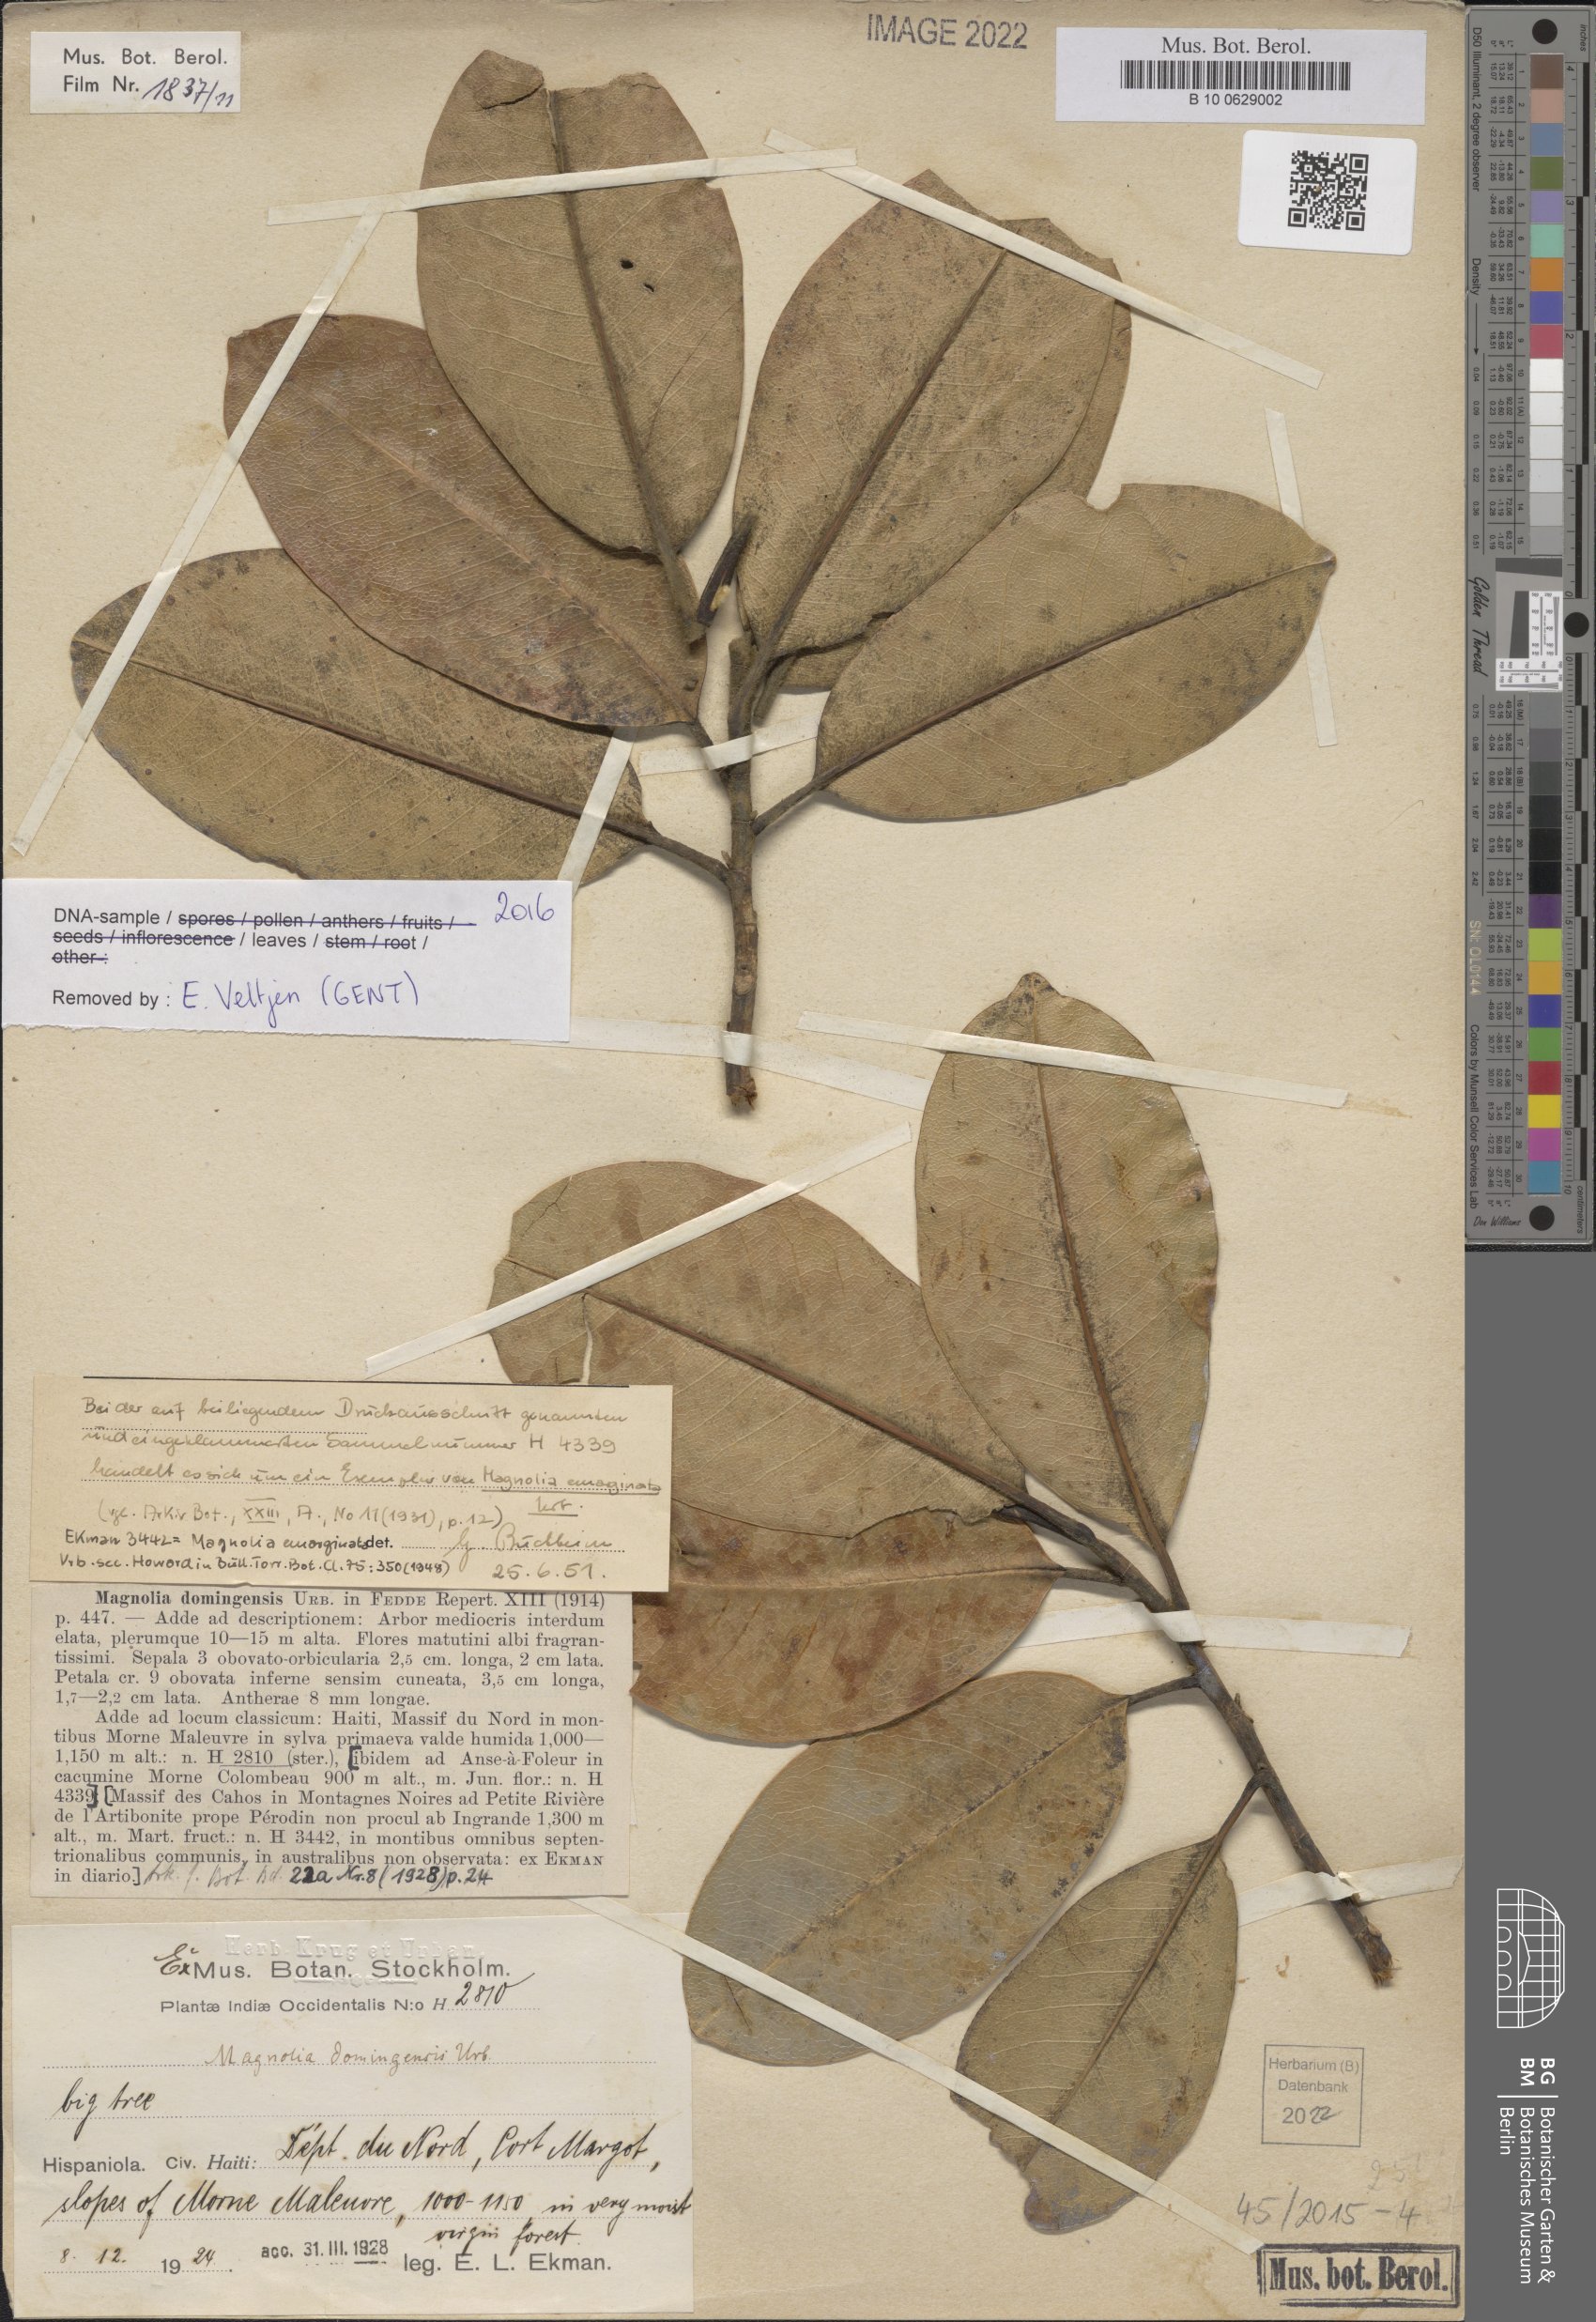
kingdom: Plantae
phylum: Tracheophyta
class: Magnoliopsida
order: Magnoliales
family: Magnoliaceae
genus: Magnolia
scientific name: Magnolia domingensis
